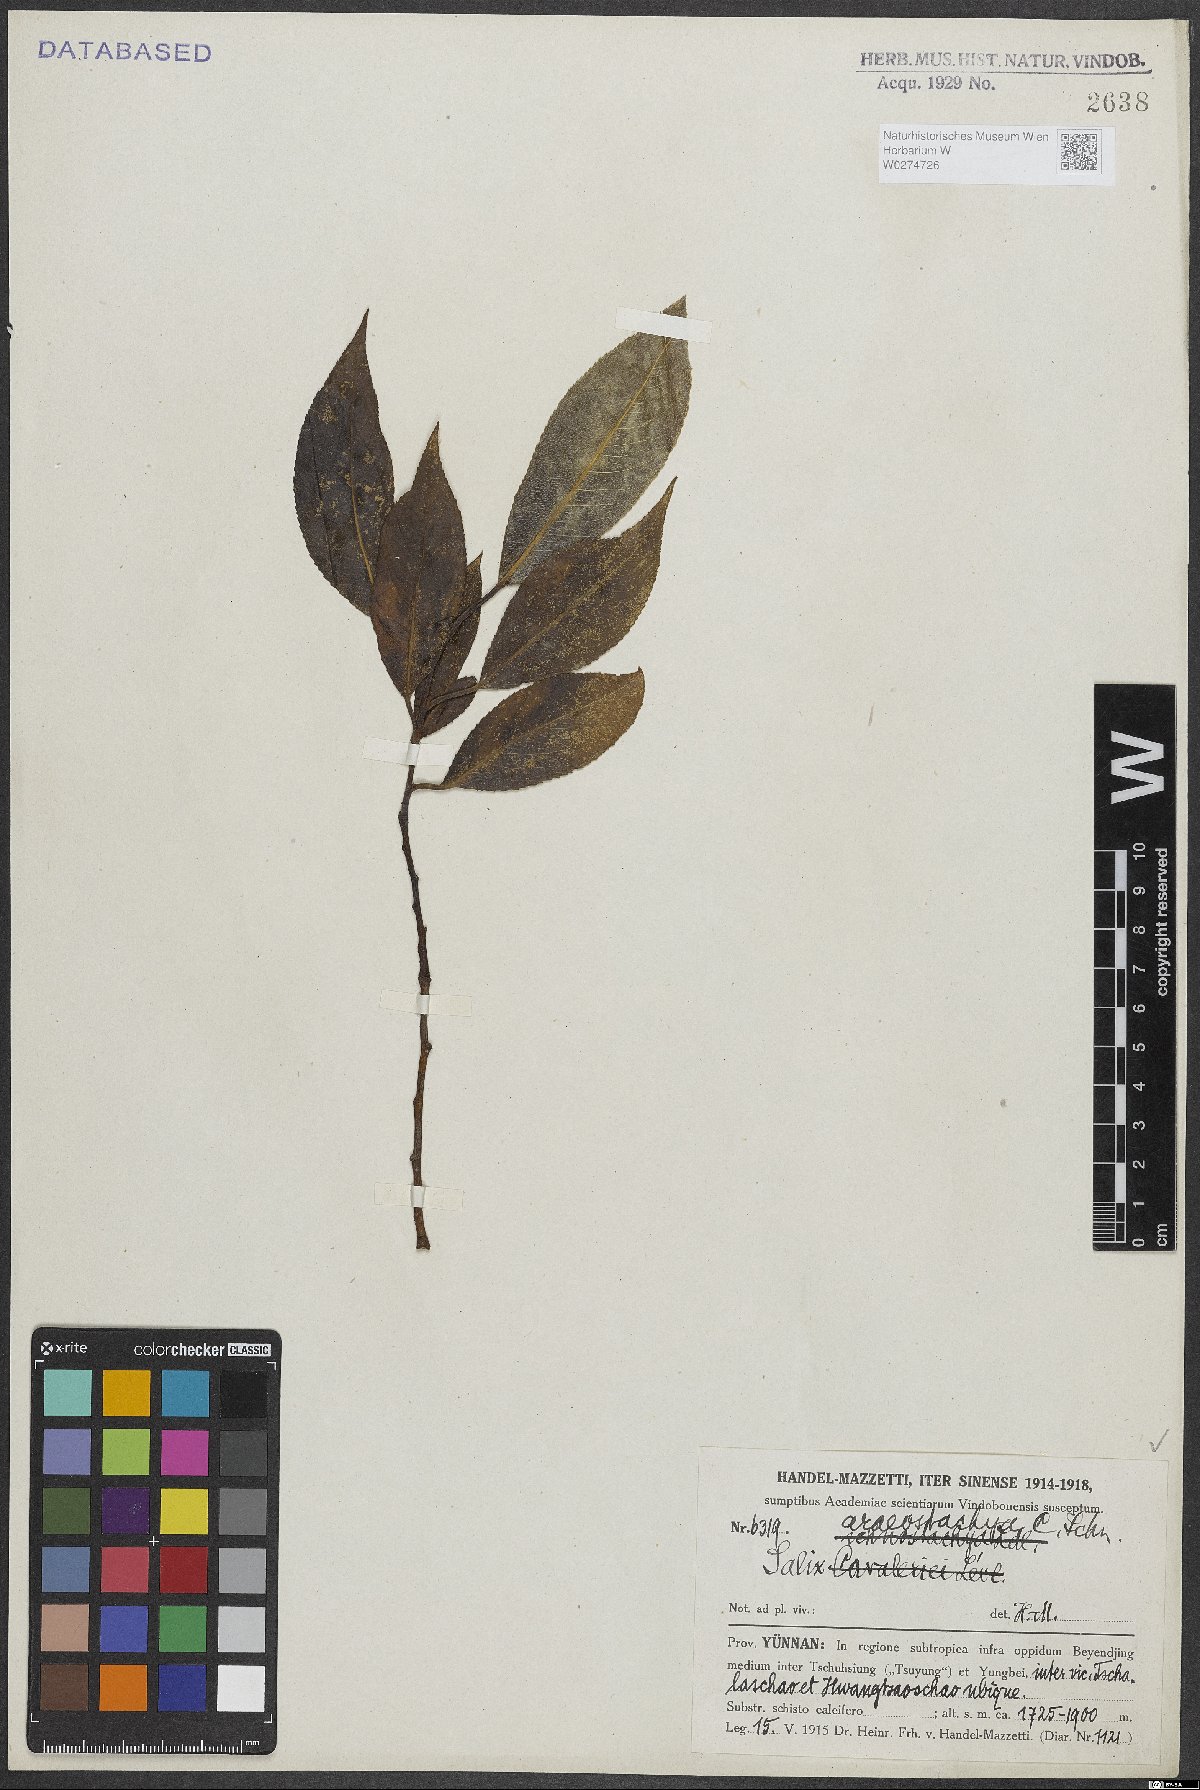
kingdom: Plantae
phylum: Tracheophyta
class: Magnoliopsida
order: Malpighiales
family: Salicaceae
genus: Salix
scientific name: Salix tetrasperma
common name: Indian willow
